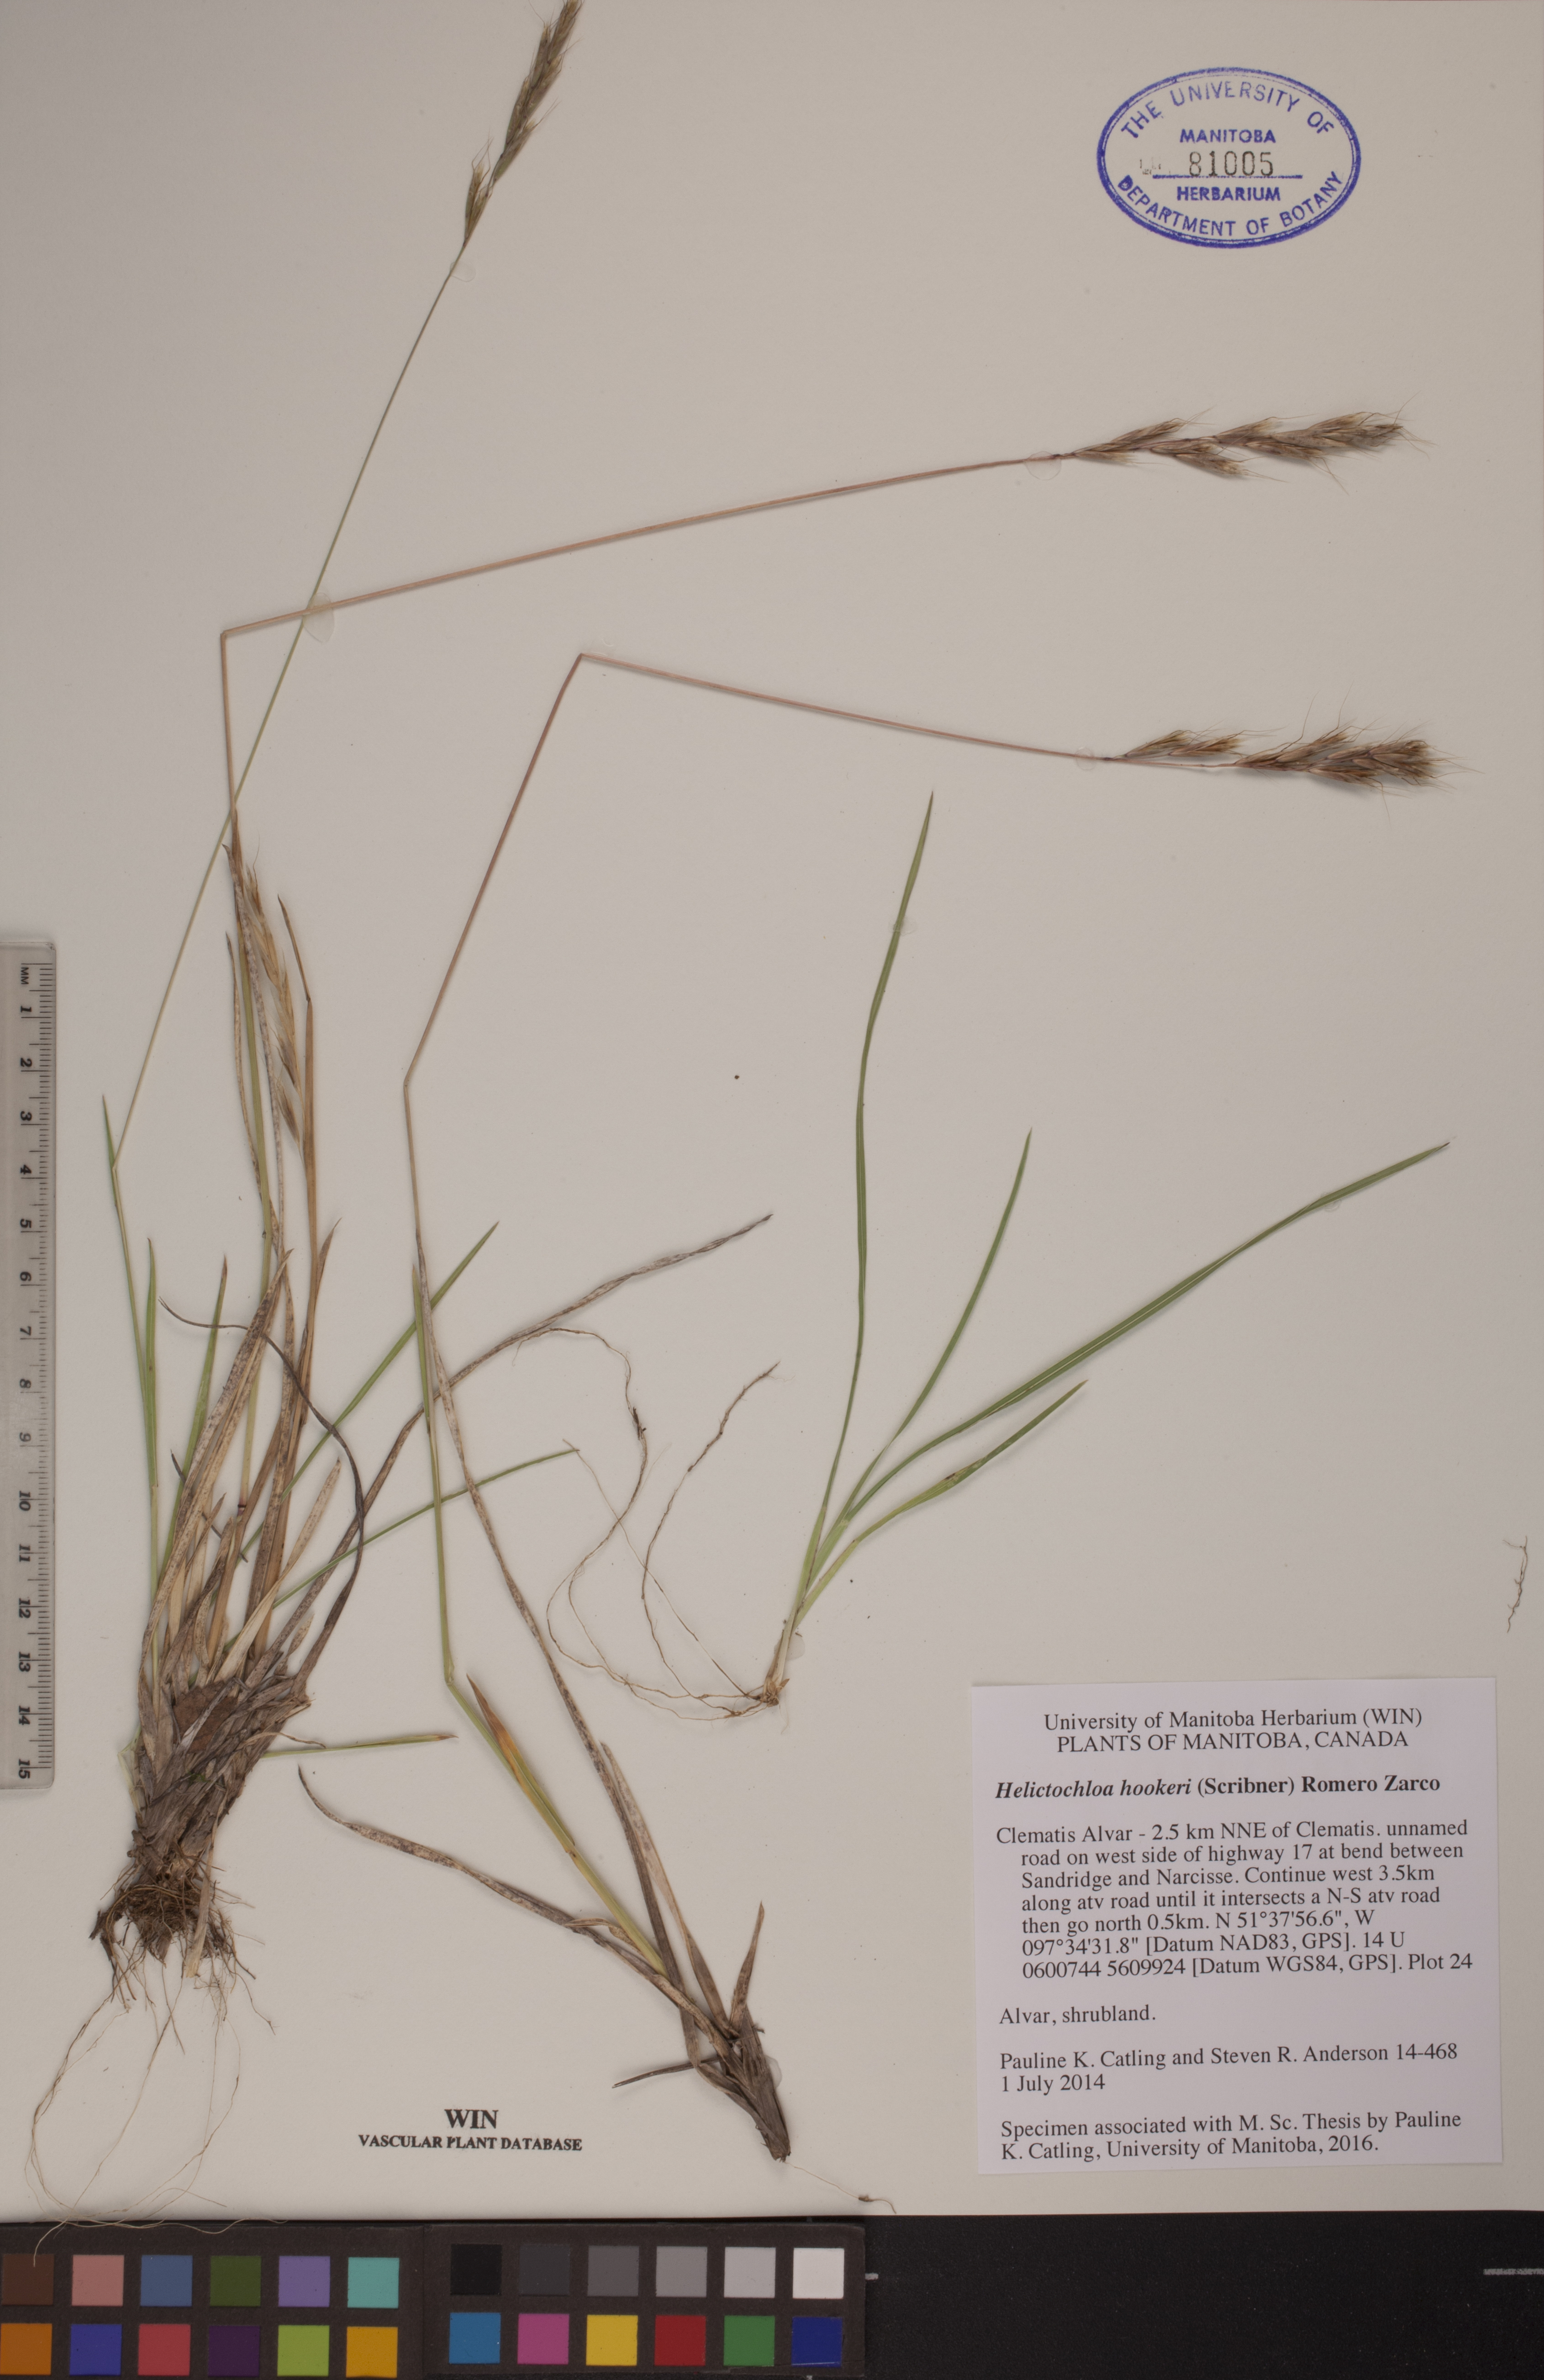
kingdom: Plantae
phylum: Tracheophyta
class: Liliopsida
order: Poales
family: Poaceae
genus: Helictochloa
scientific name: Helictochloa hookeri
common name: Hooker's alpine oatgrass
